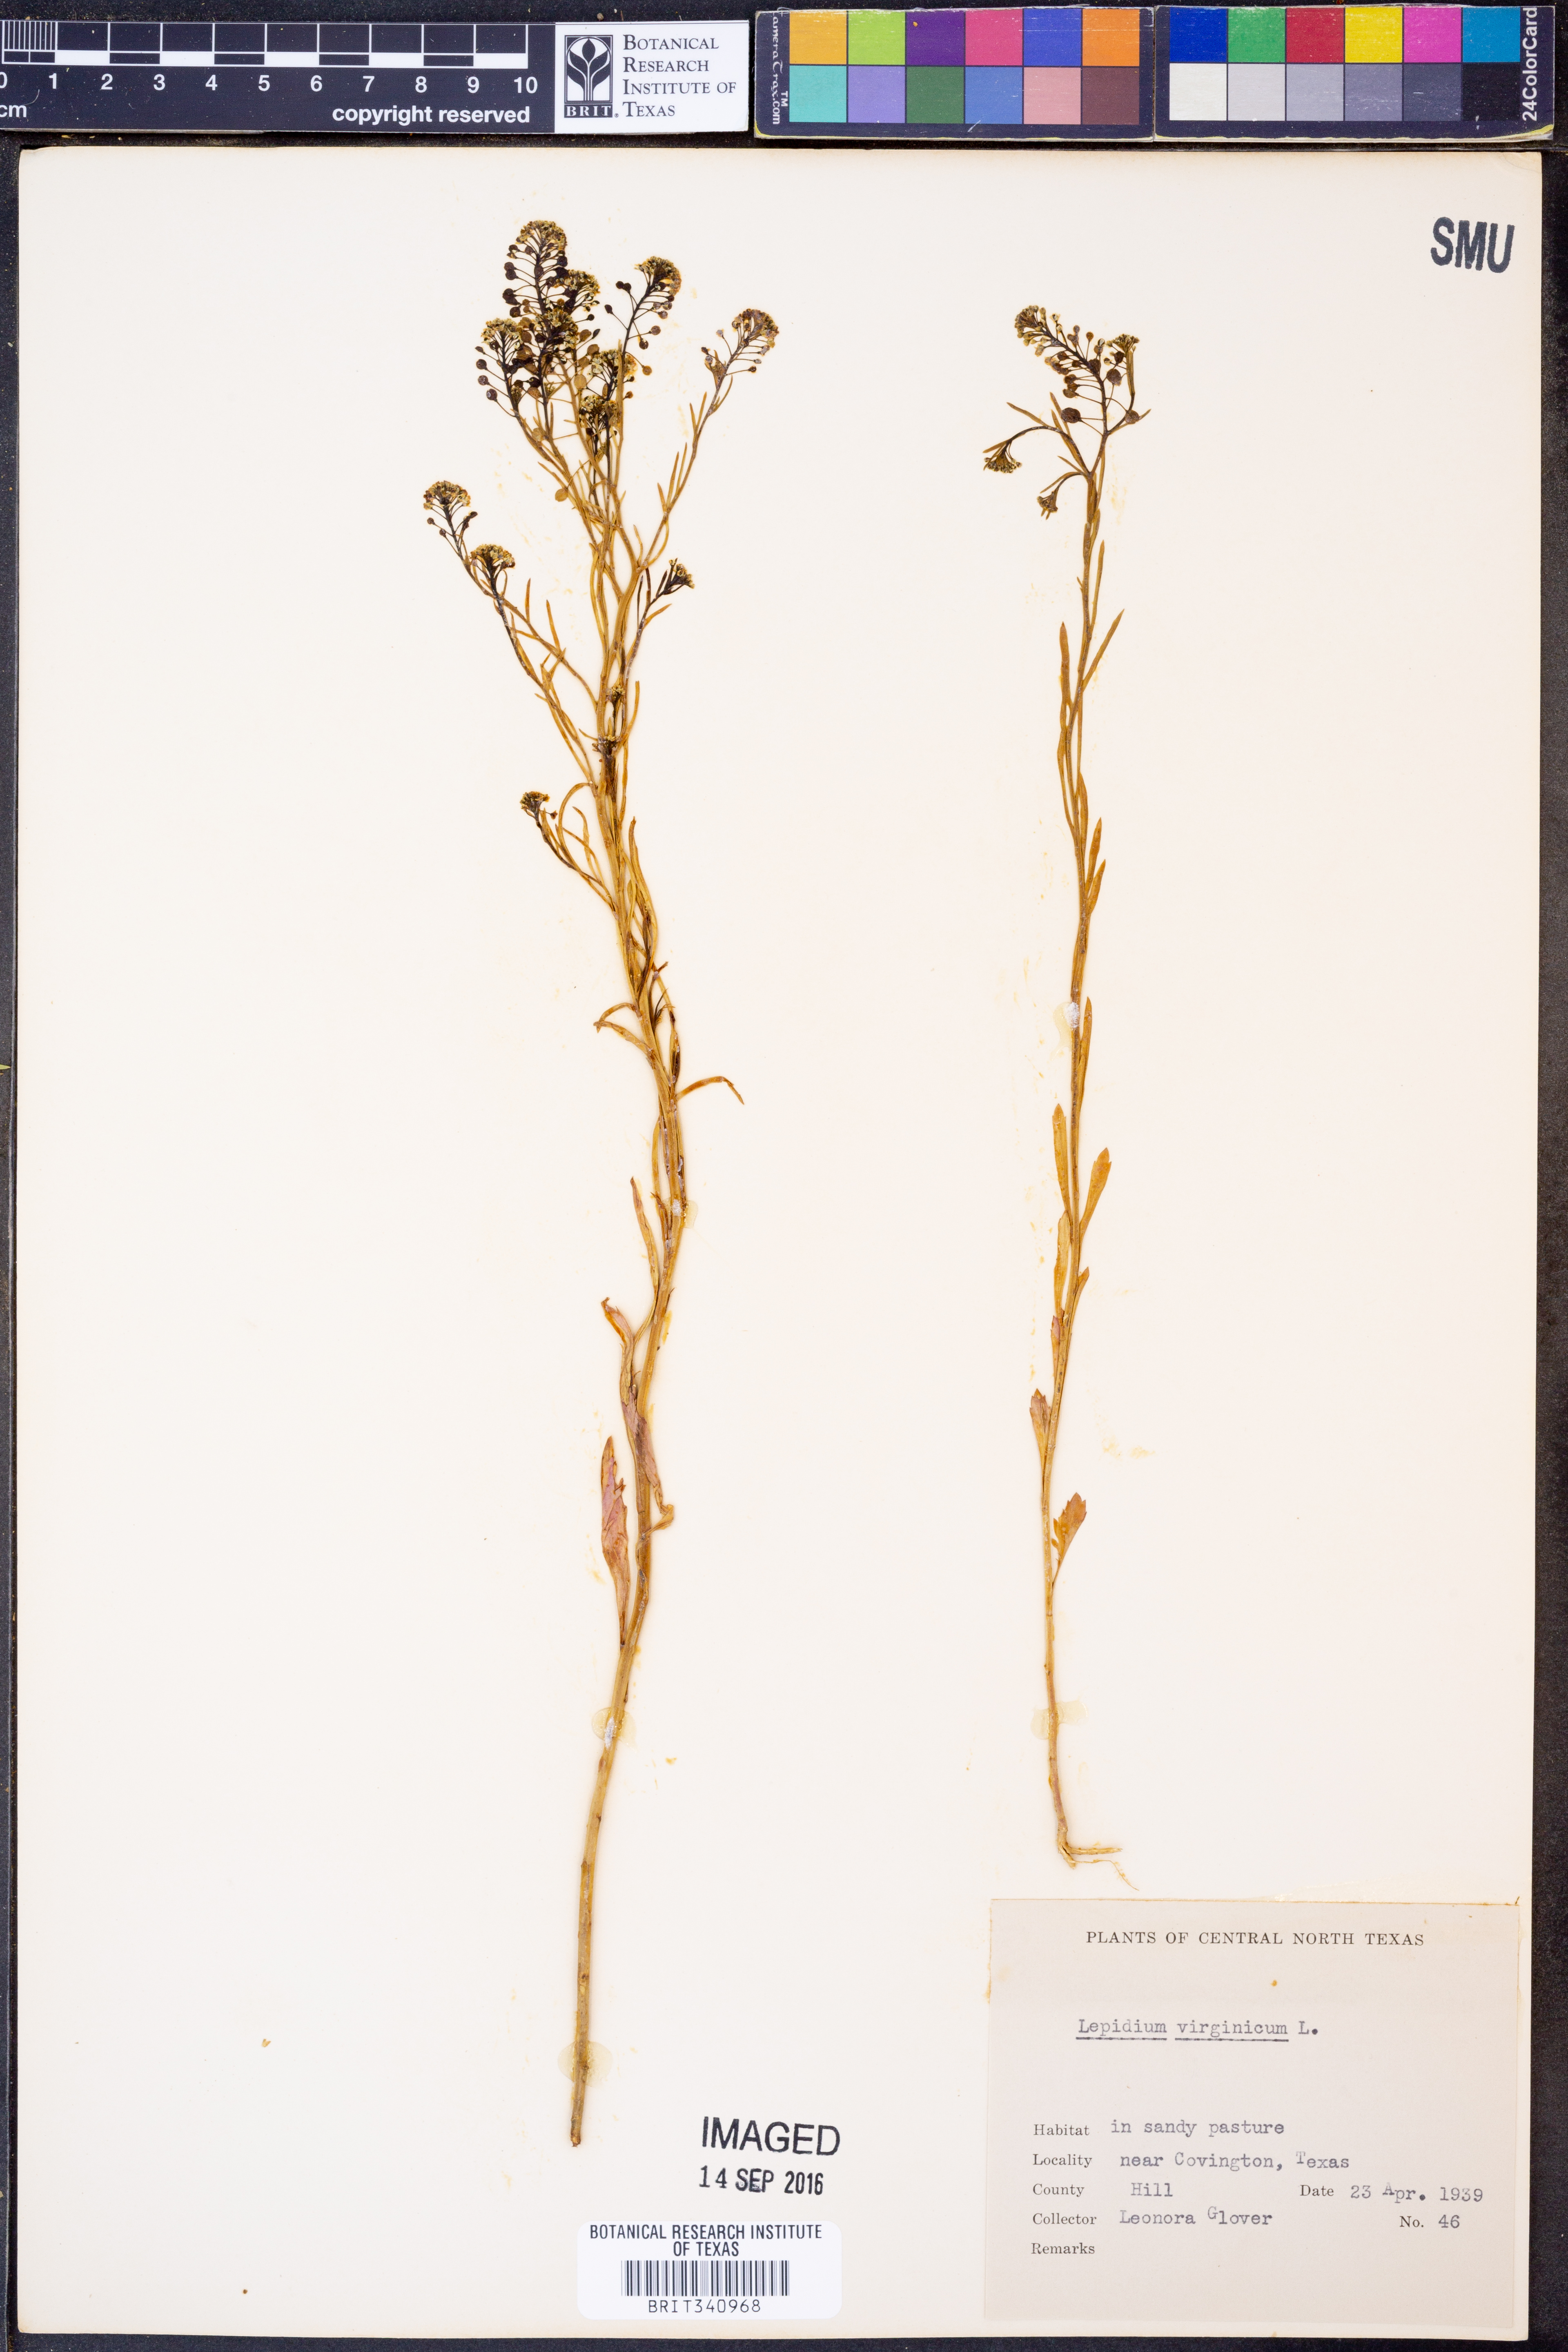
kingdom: Plantae
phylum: Tracheophyta
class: Magnoliopsida
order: Brassicales
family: Brassicaceae
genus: Lepidium
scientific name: Lepidium virginicum
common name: Least pepperwort
